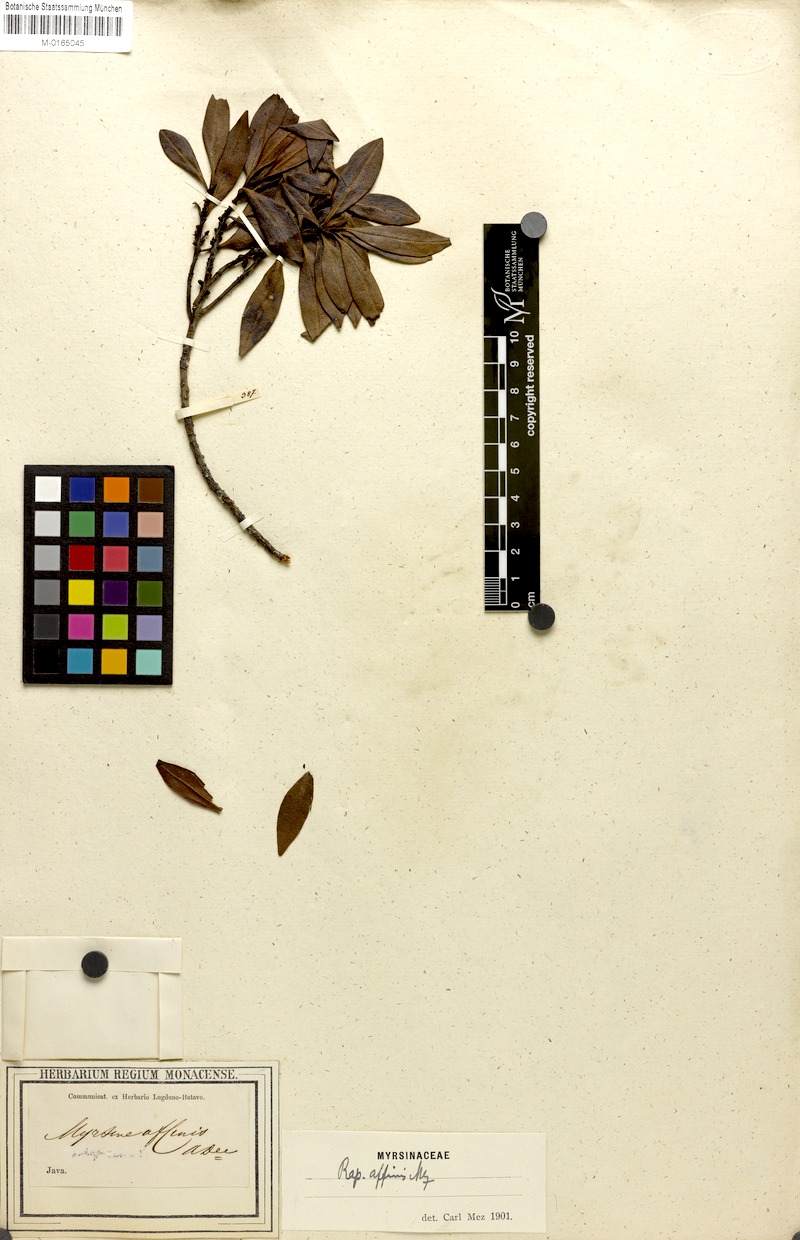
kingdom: Plantae
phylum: Tracheophyta
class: Magnoliopsida
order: Ericales
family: Primulaceae
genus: Myrsine
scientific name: Myrsine affinis
